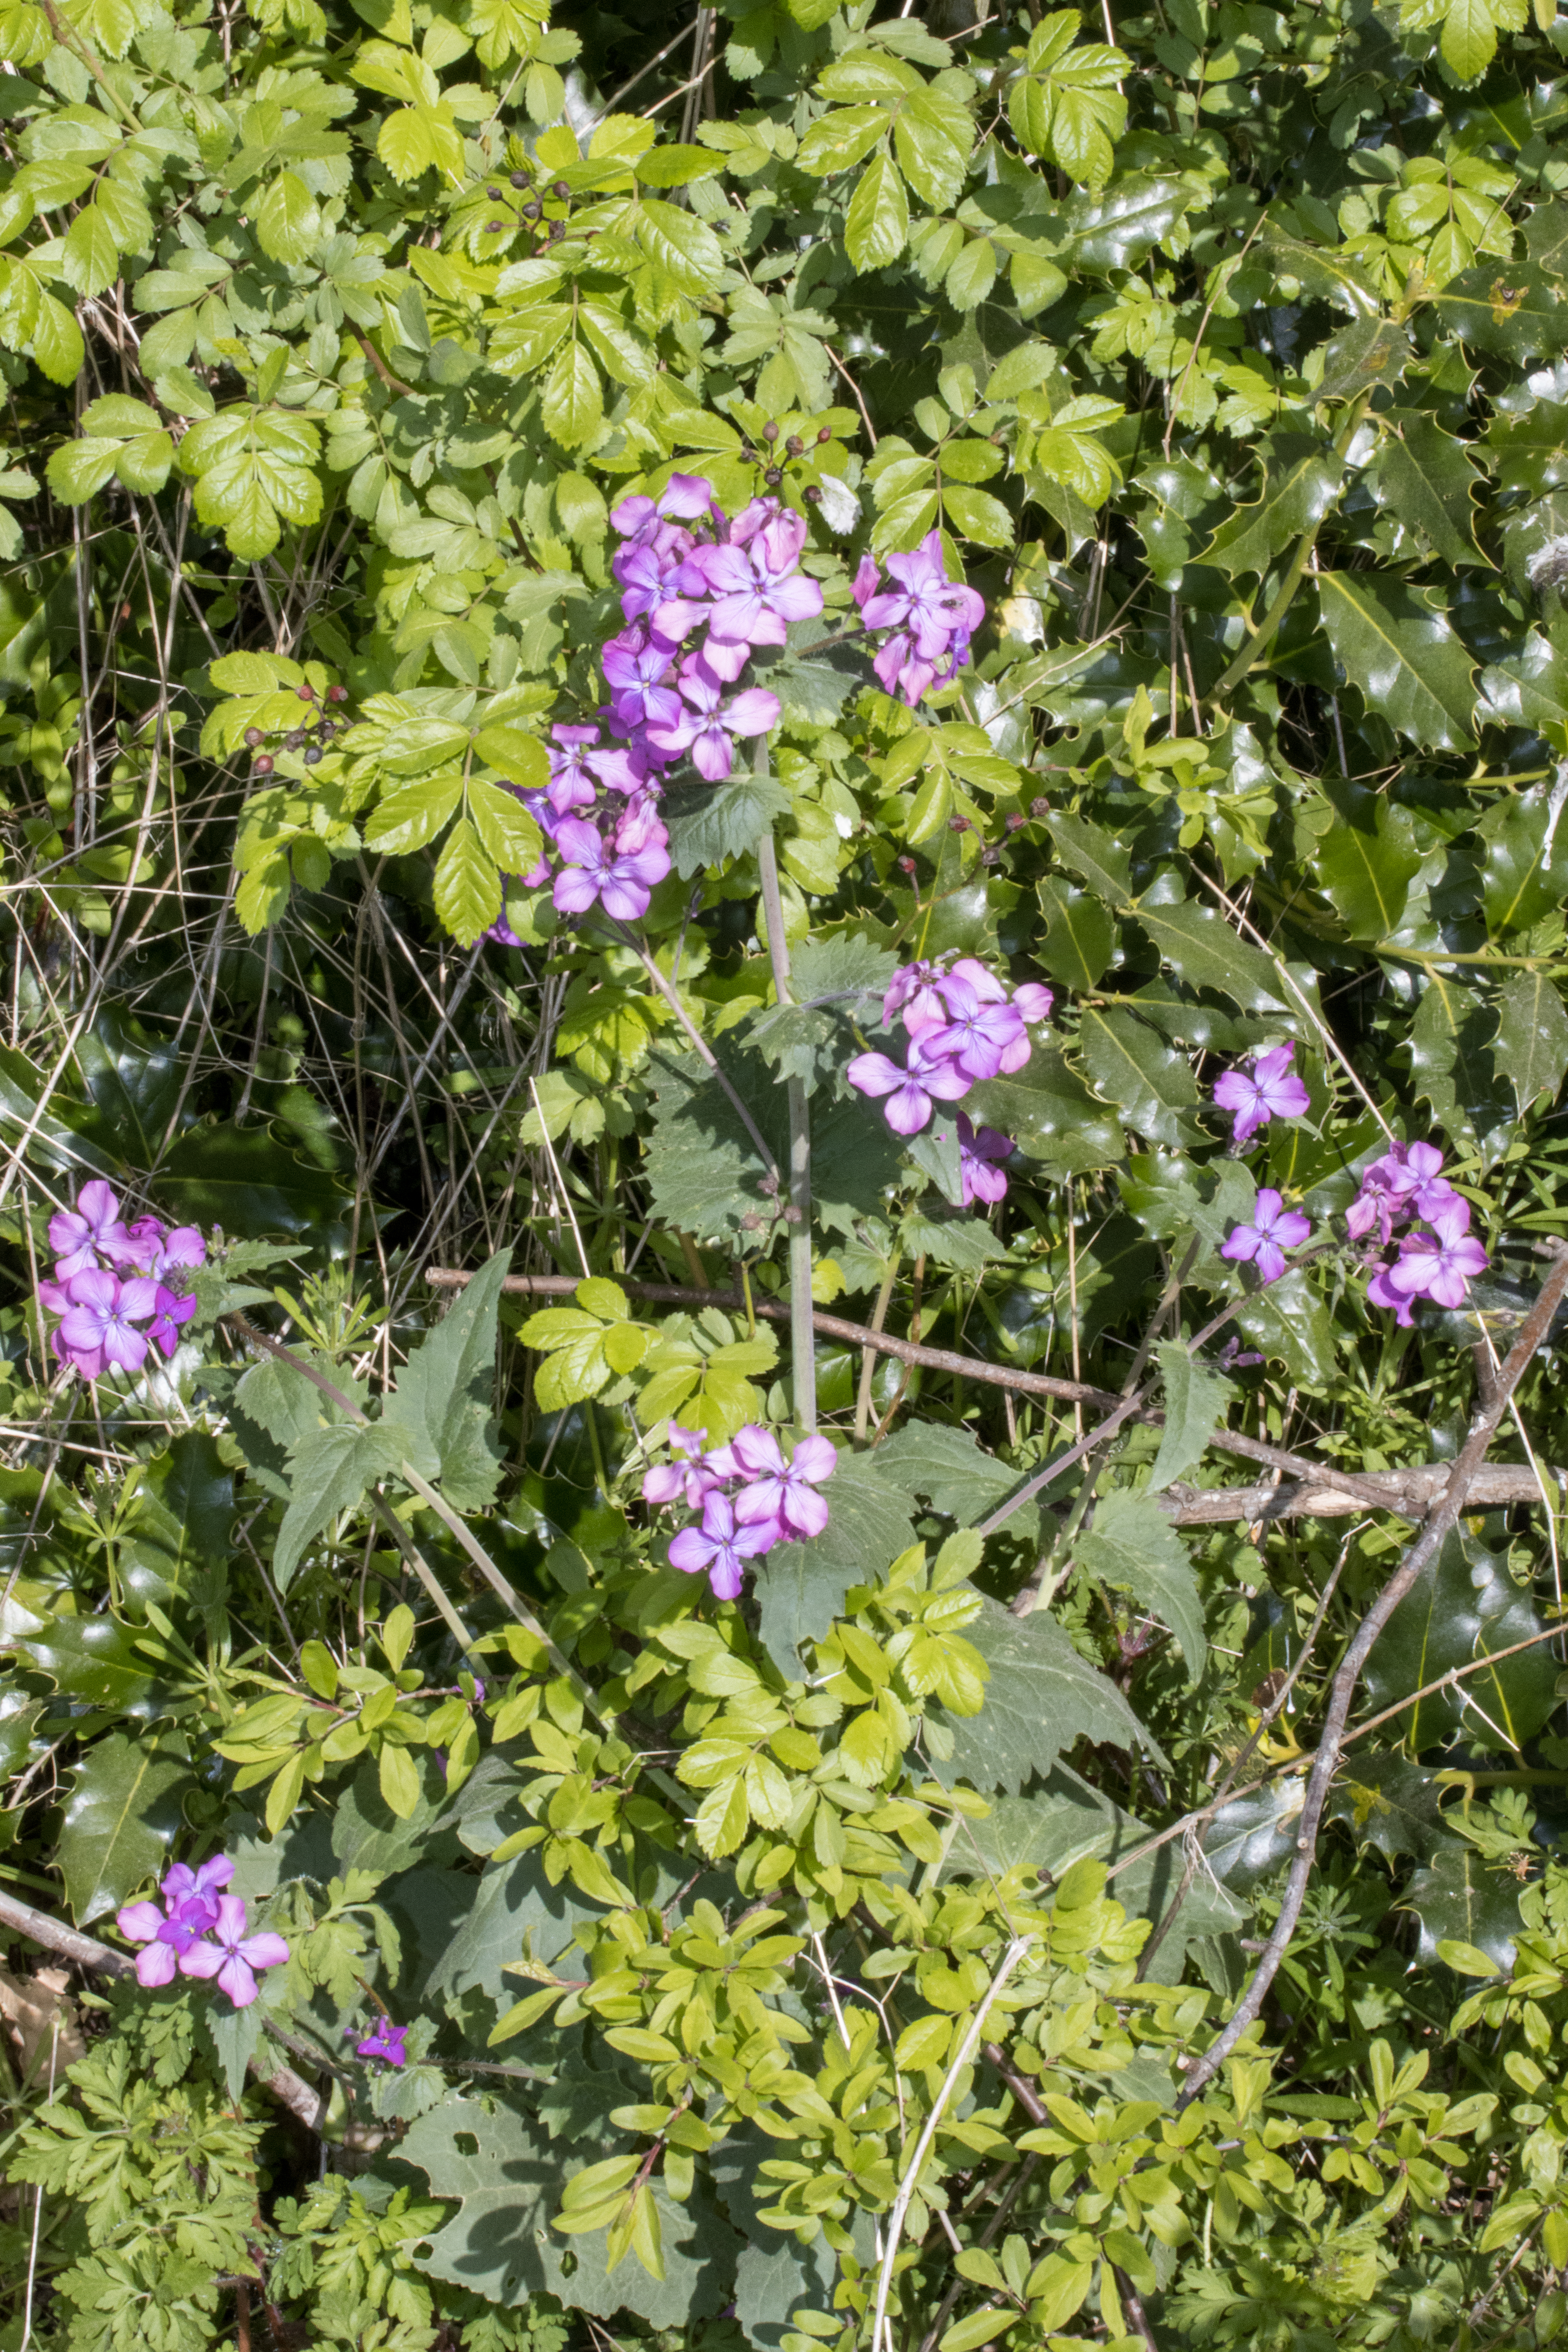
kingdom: Plantae
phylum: Tracheophyta
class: Magnoliopsida
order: Brassicales
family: Brassicaceae
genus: Lunaria
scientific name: Lunaria annua
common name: Judaspenge
